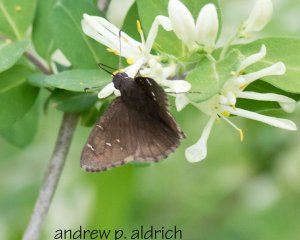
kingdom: Animalia
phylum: Arthropoda
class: Insecta
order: Lepidoptera
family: Hesperiidae
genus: Autochton
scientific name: Autochton
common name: Northern Cloudywing
